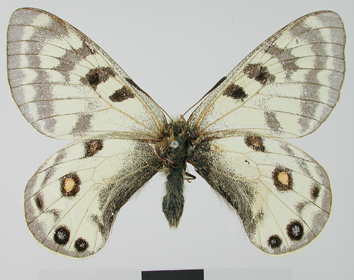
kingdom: Animalia
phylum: Arthropoda
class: Insecta
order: Lepidoptera
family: Papilionidae
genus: Parnassius
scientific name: Parnassius staudingeri
